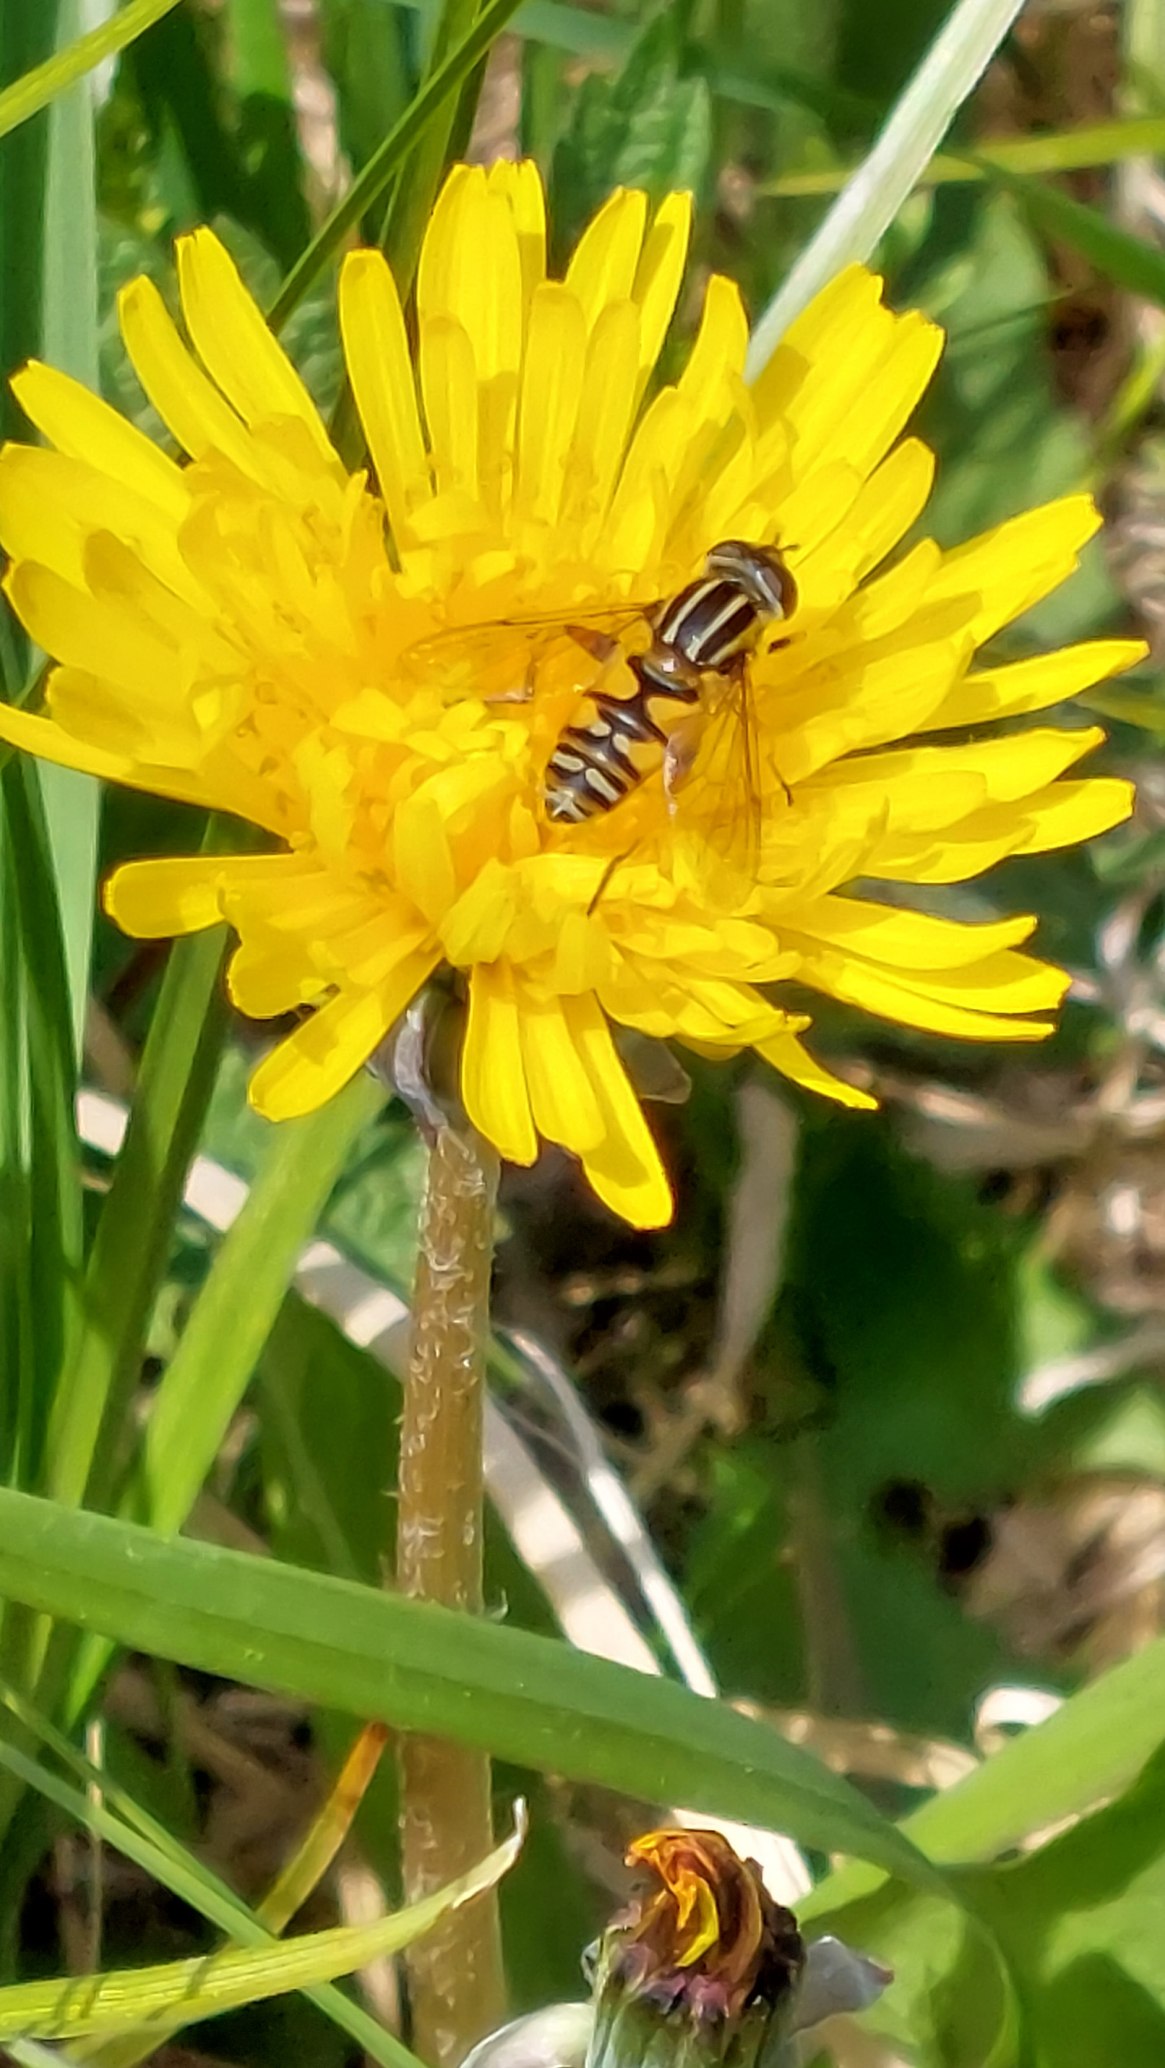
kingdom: Animalia
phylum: Arthropoda
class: Insecta
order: Diptera
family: Syrphidae
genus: Helophilus
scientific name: Helophilus pendulus
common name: Almindelig sumpsvirreflue
